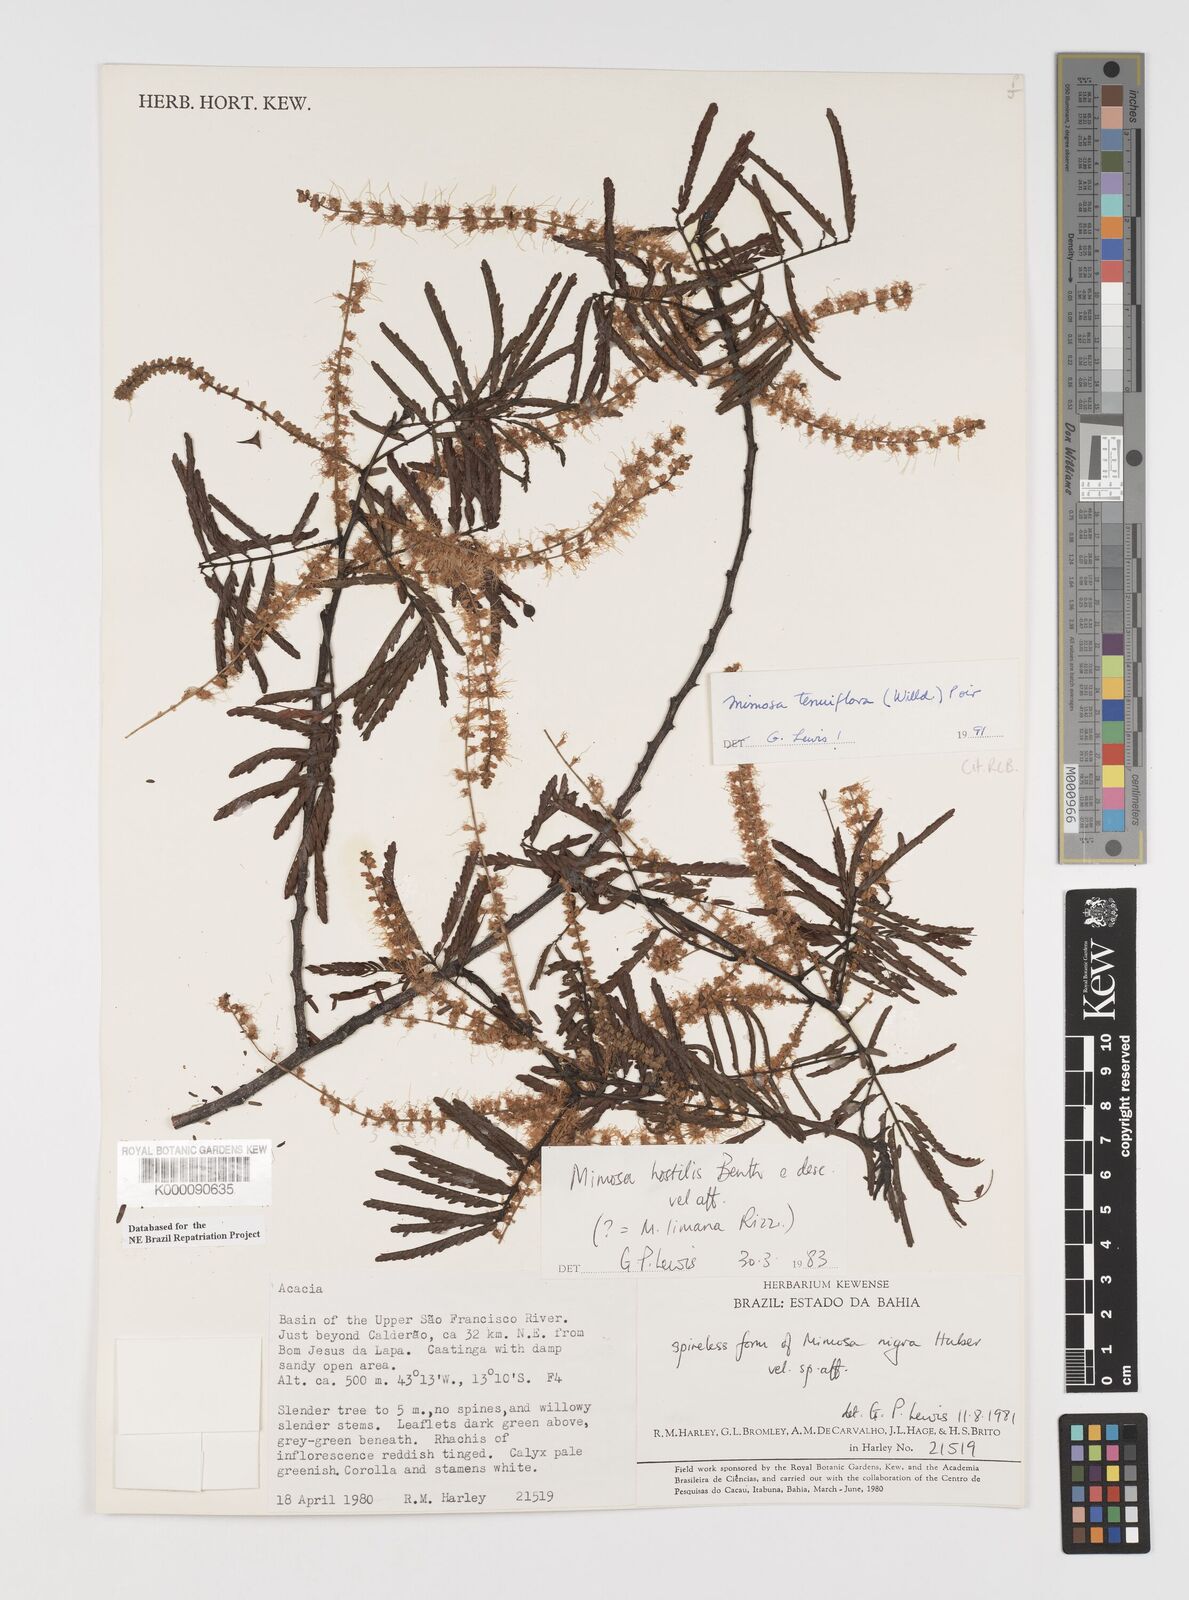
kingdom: Plantae
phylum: Tracheophyta
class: Magnoliopsida
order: Fabales
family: Fabaceae
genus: Mimosa
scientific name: Mimosa tenuiflora
